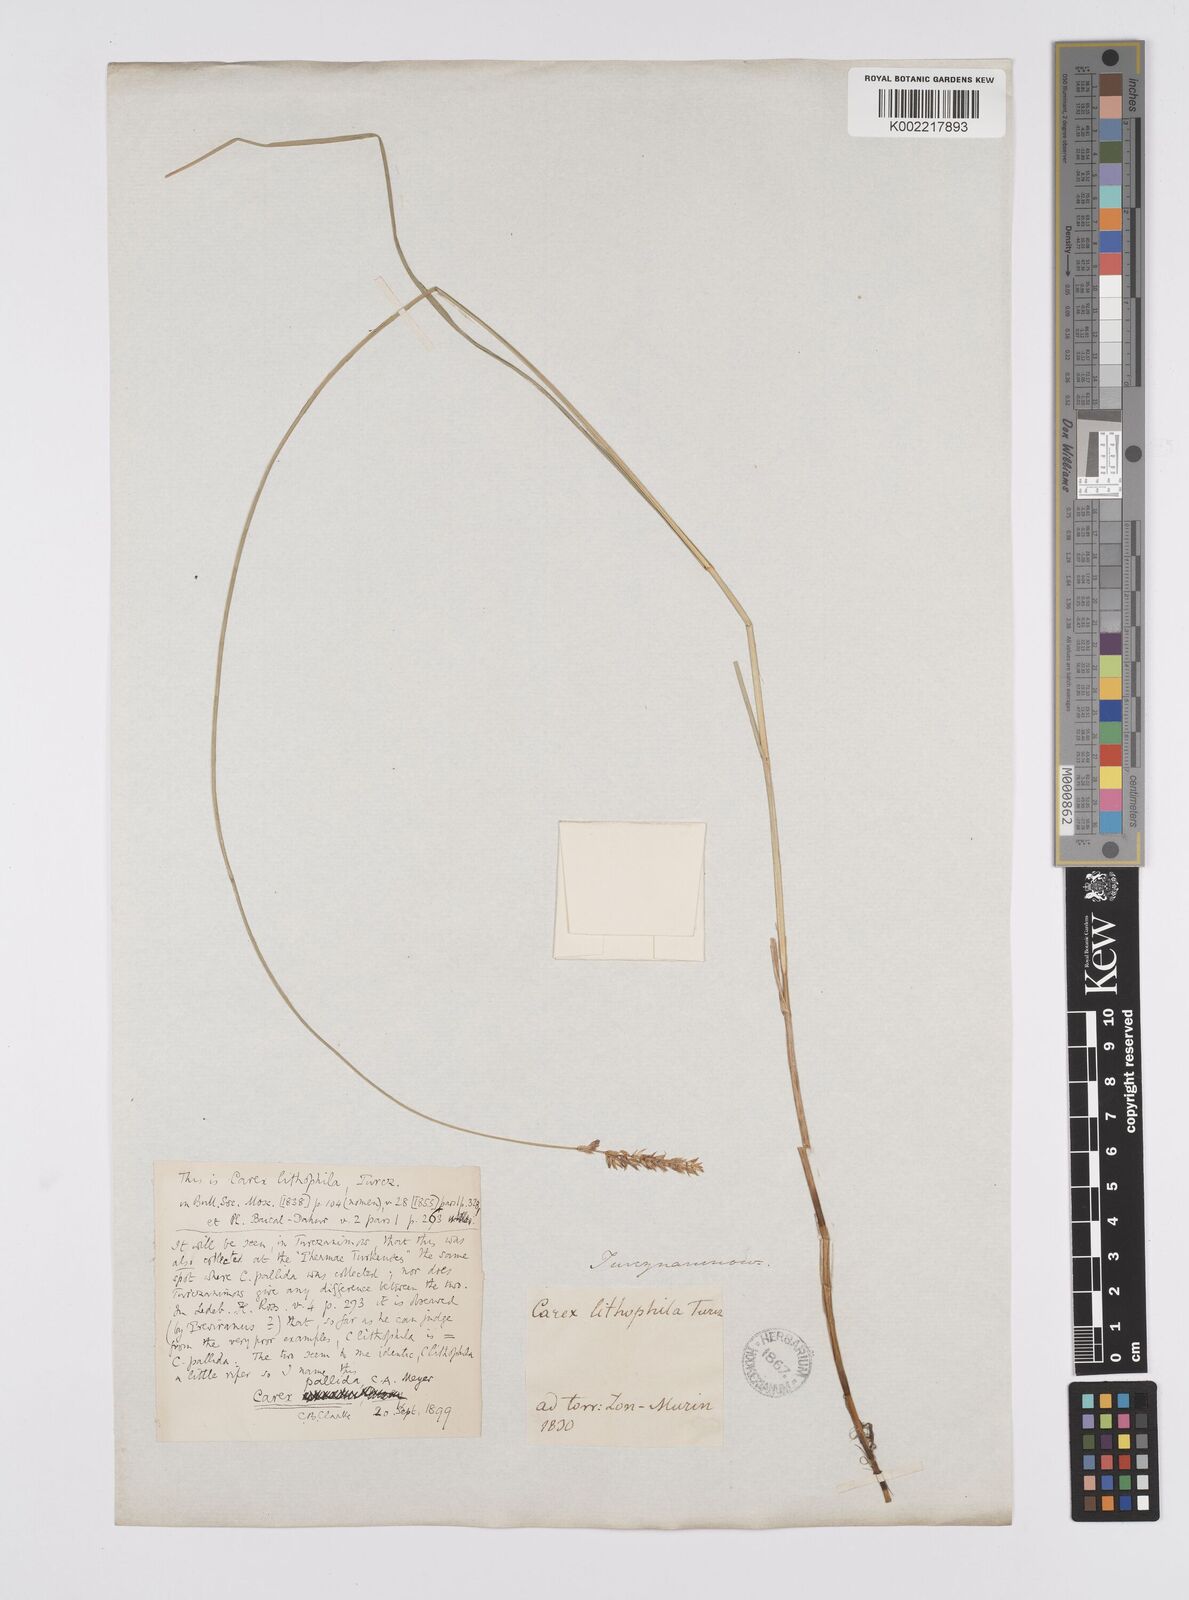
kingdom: Plantae
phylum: Tracheophyta
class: Liliopsida
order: Poales
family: Cyperaceae
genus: Carex
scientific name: Carex accrescens
